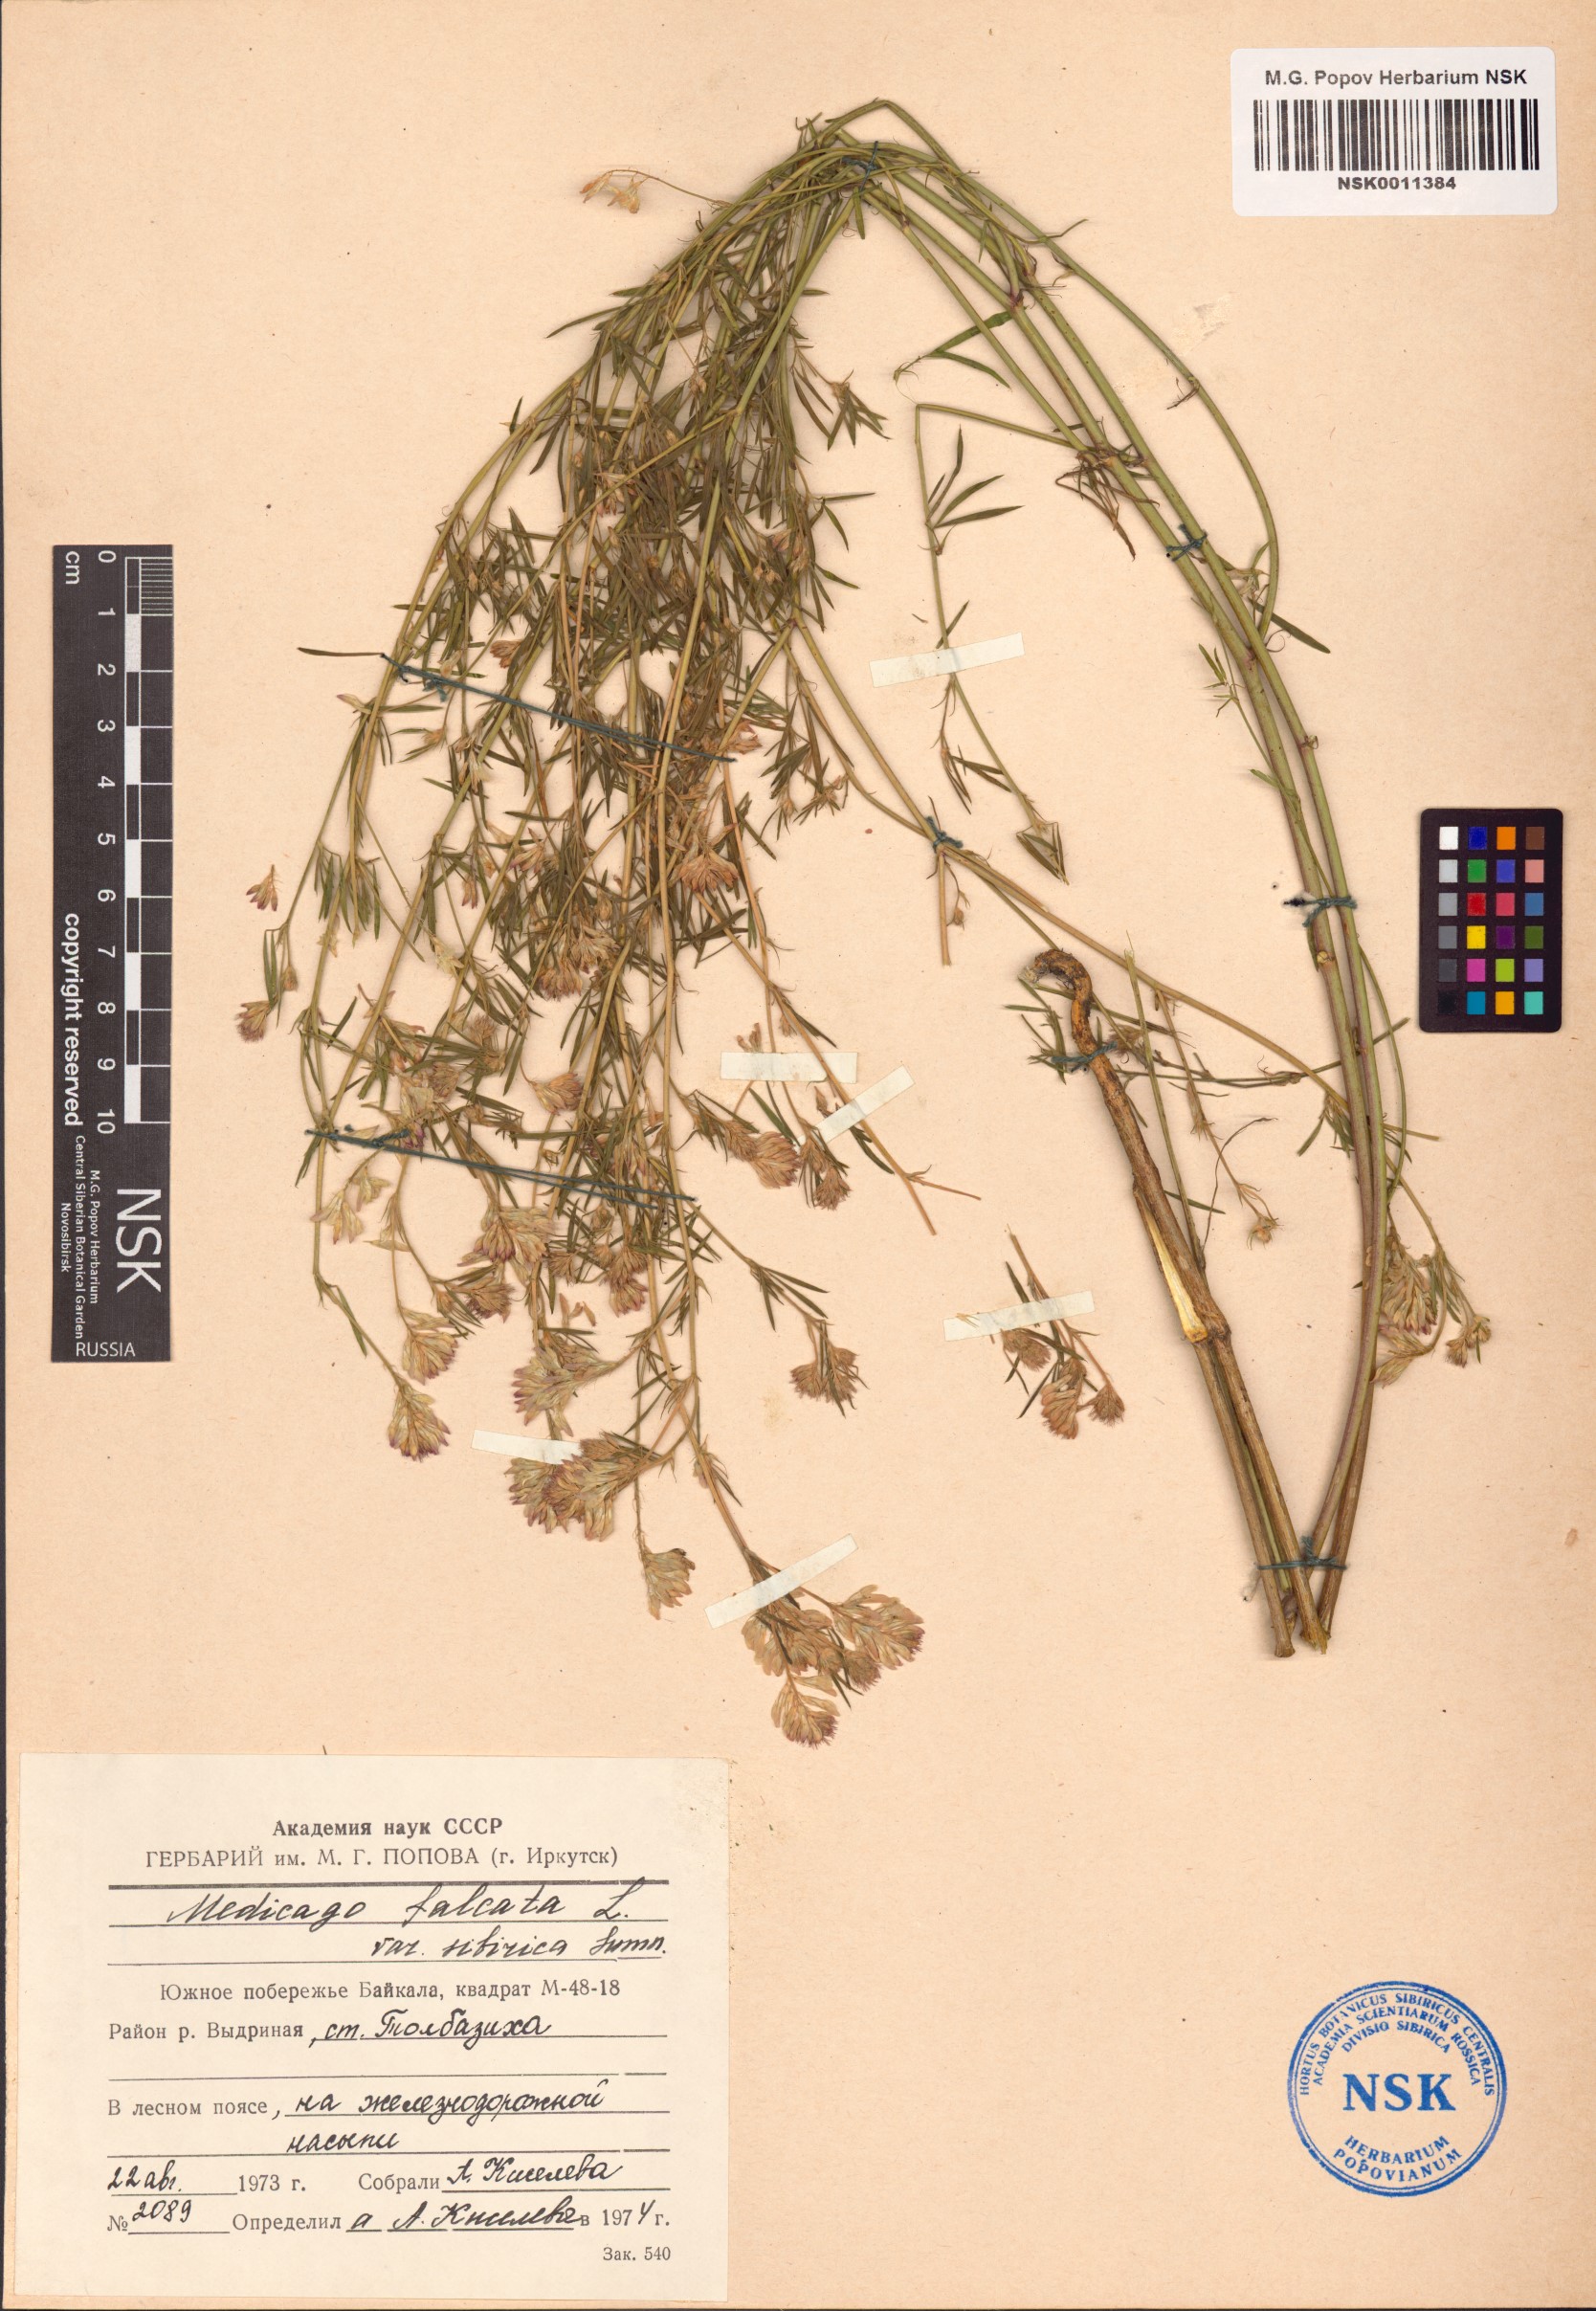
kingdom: Plantae
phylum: Tracheophyta
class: Magnoliopsida
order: Fabales
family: Fabaceae
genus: Medicago
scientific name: Medicago falcata
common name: Sickle medick
